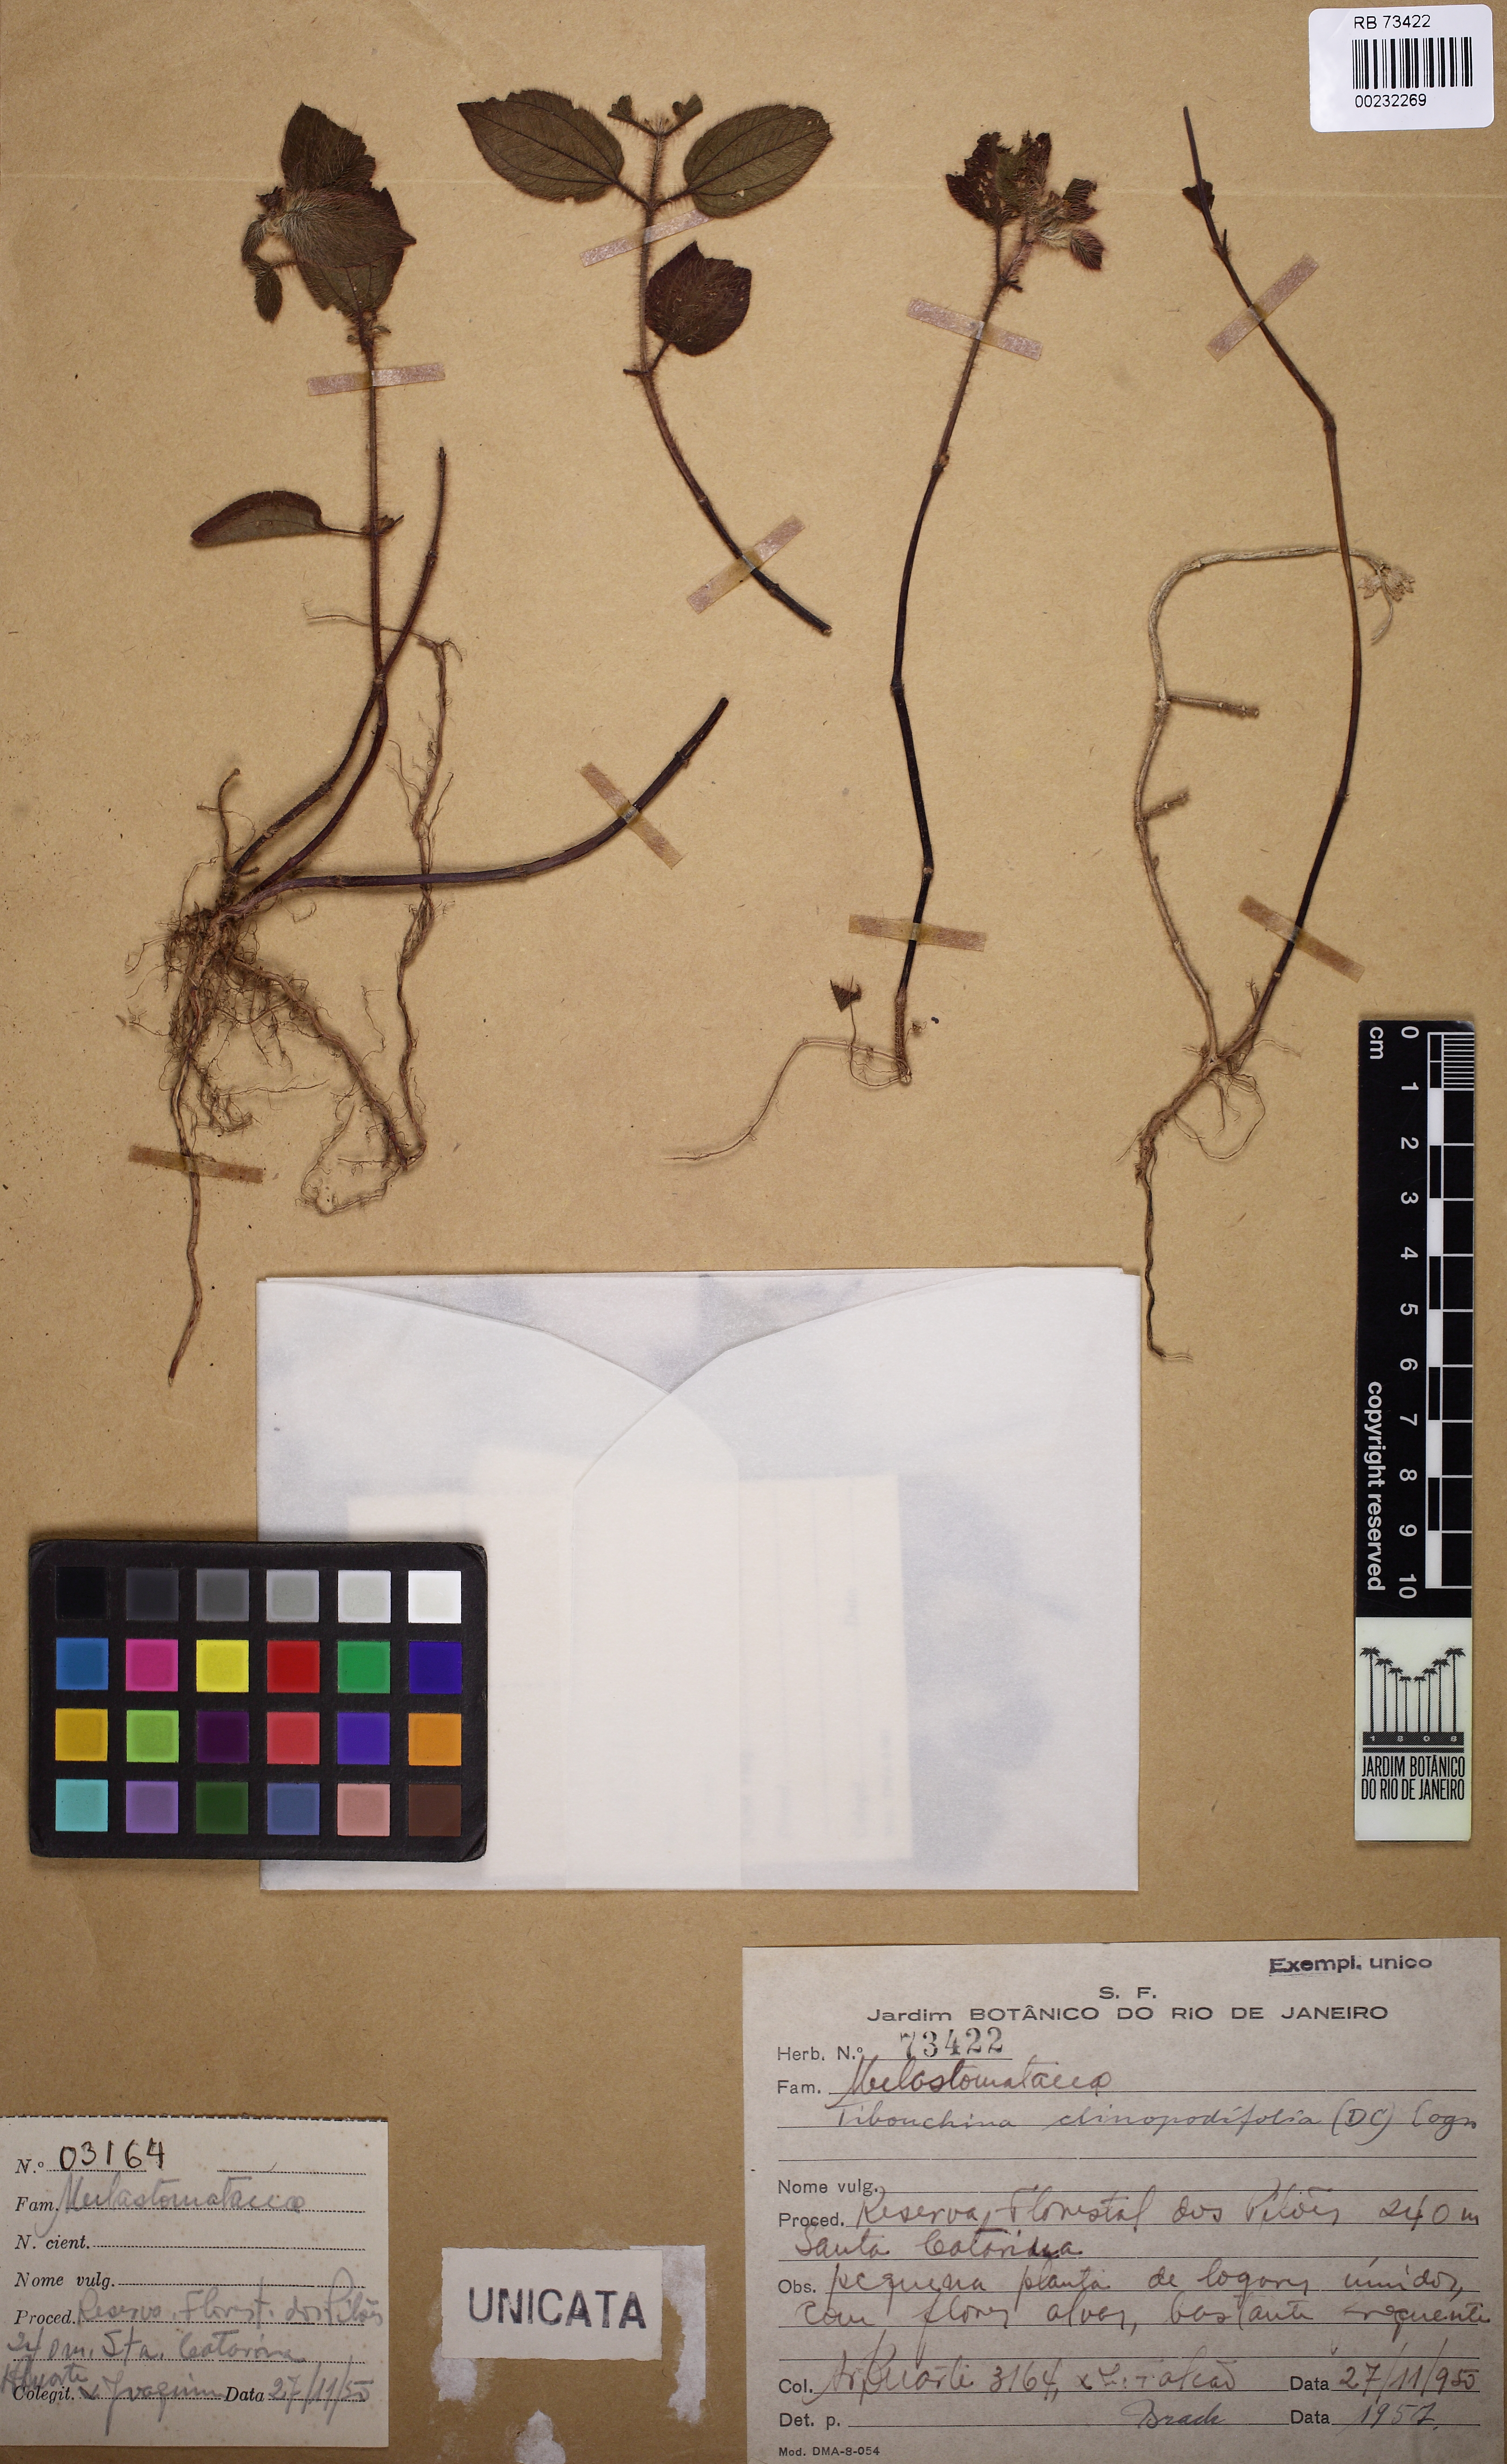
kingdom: Plantae
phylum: Tracheophyta
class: Magnoliopsida
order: Myrtales
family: Melastomataceae
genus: Chaetogastra
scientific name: Chaetogastra clinopodifolia
